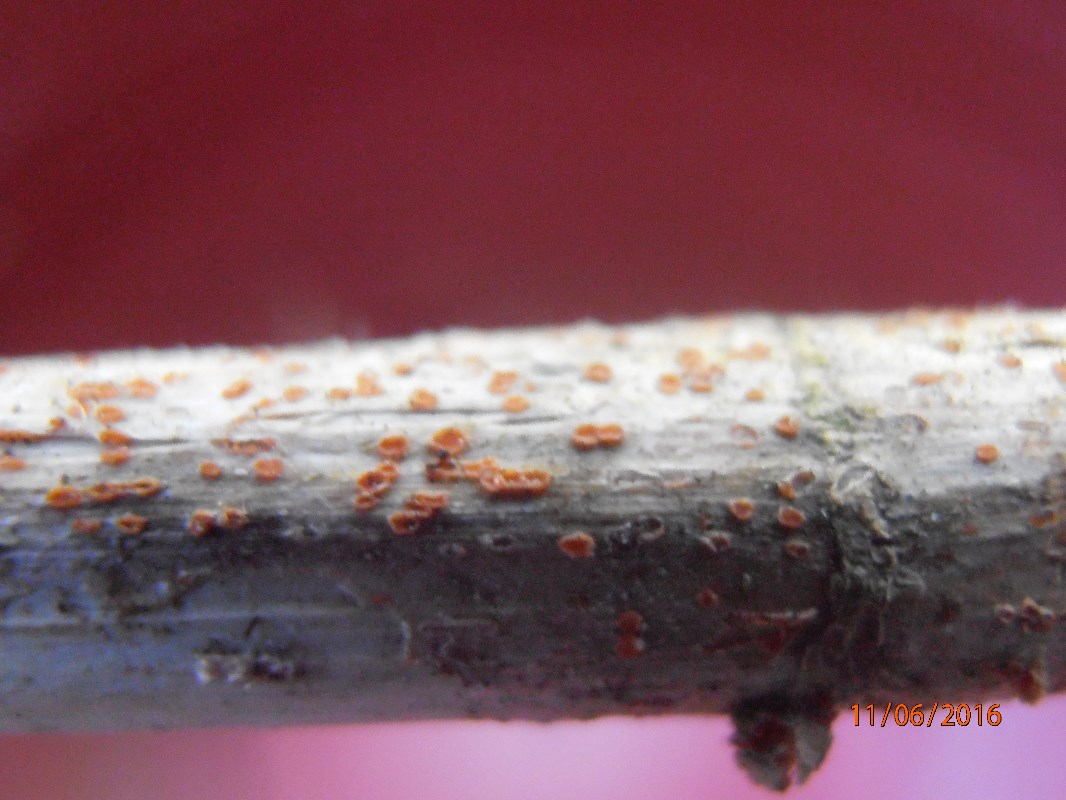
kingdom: Fungi
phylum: Ascomycota
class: Leotiomycetes
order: Helotiales
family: Calloriaceae
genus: Calloria
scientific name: Calloria urticae
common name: nælde-orangeskive
